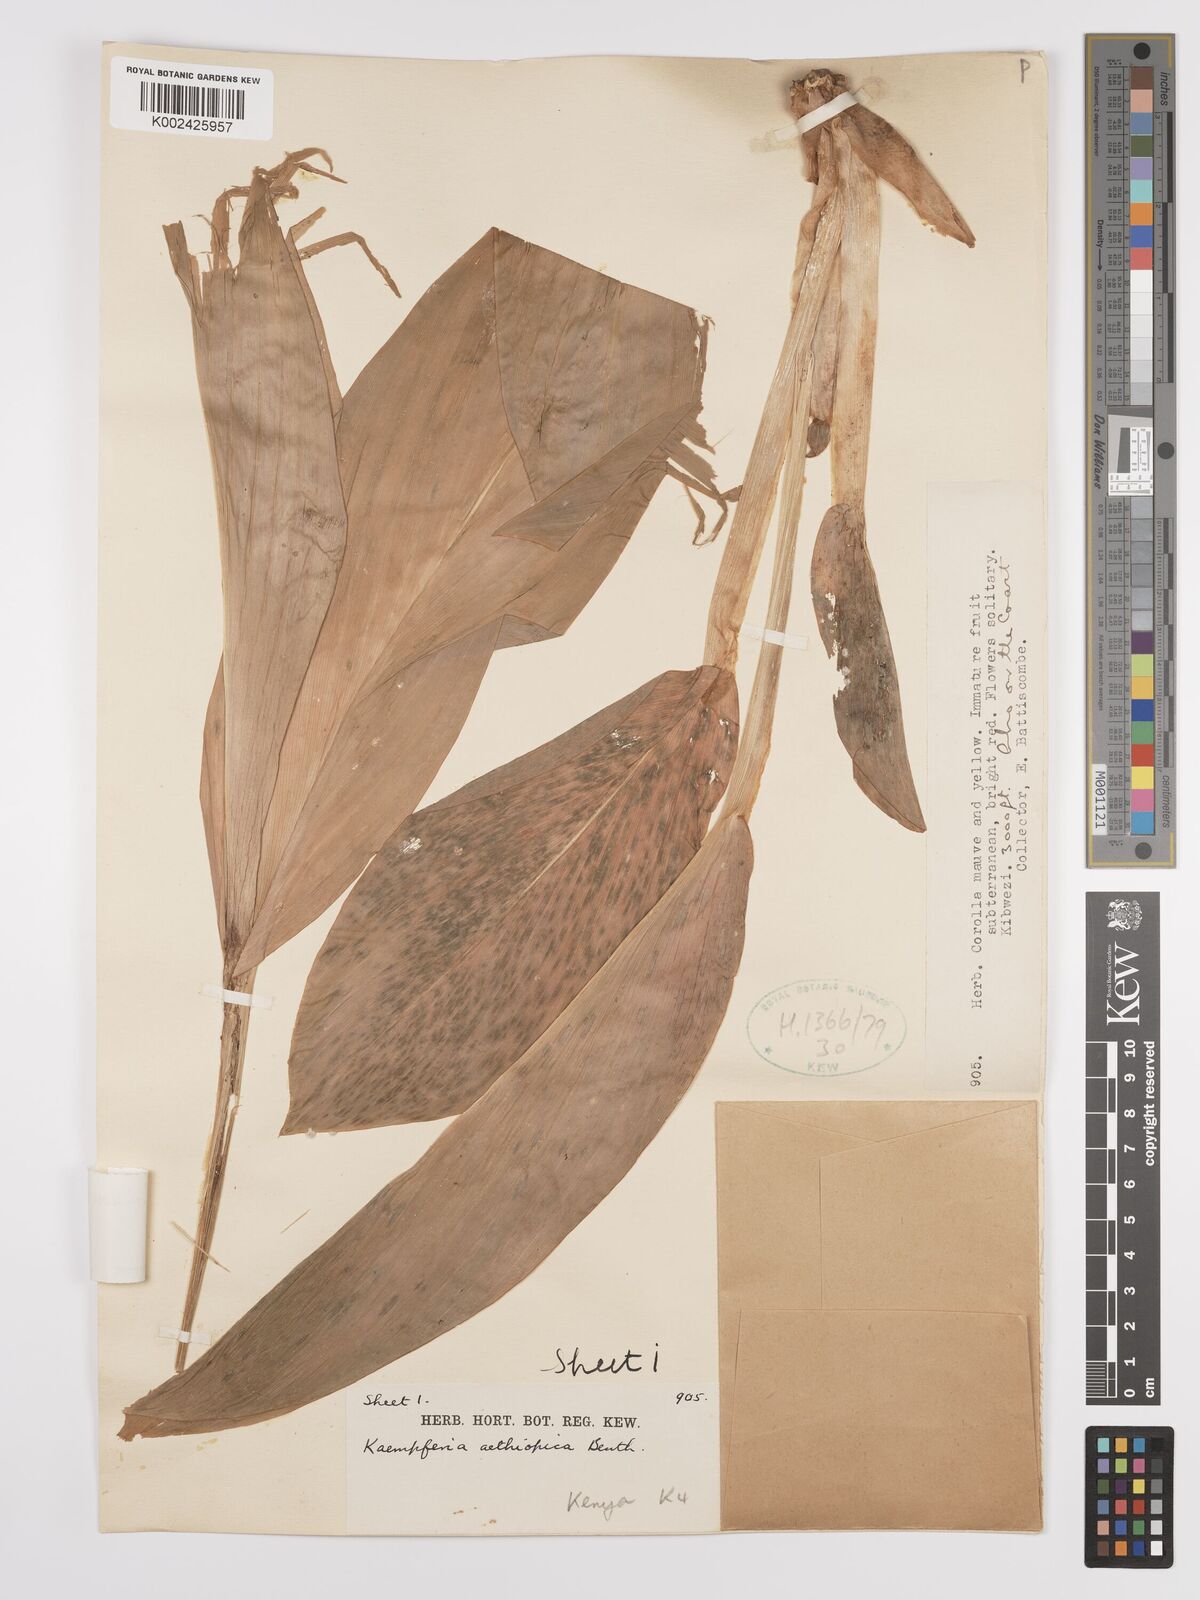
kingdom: Plantae
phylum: Tracheophyta
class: Liliopsida
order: Zingiberales
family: Zingiberaceae
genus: Siphonochilus
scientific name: Siphonochilus
